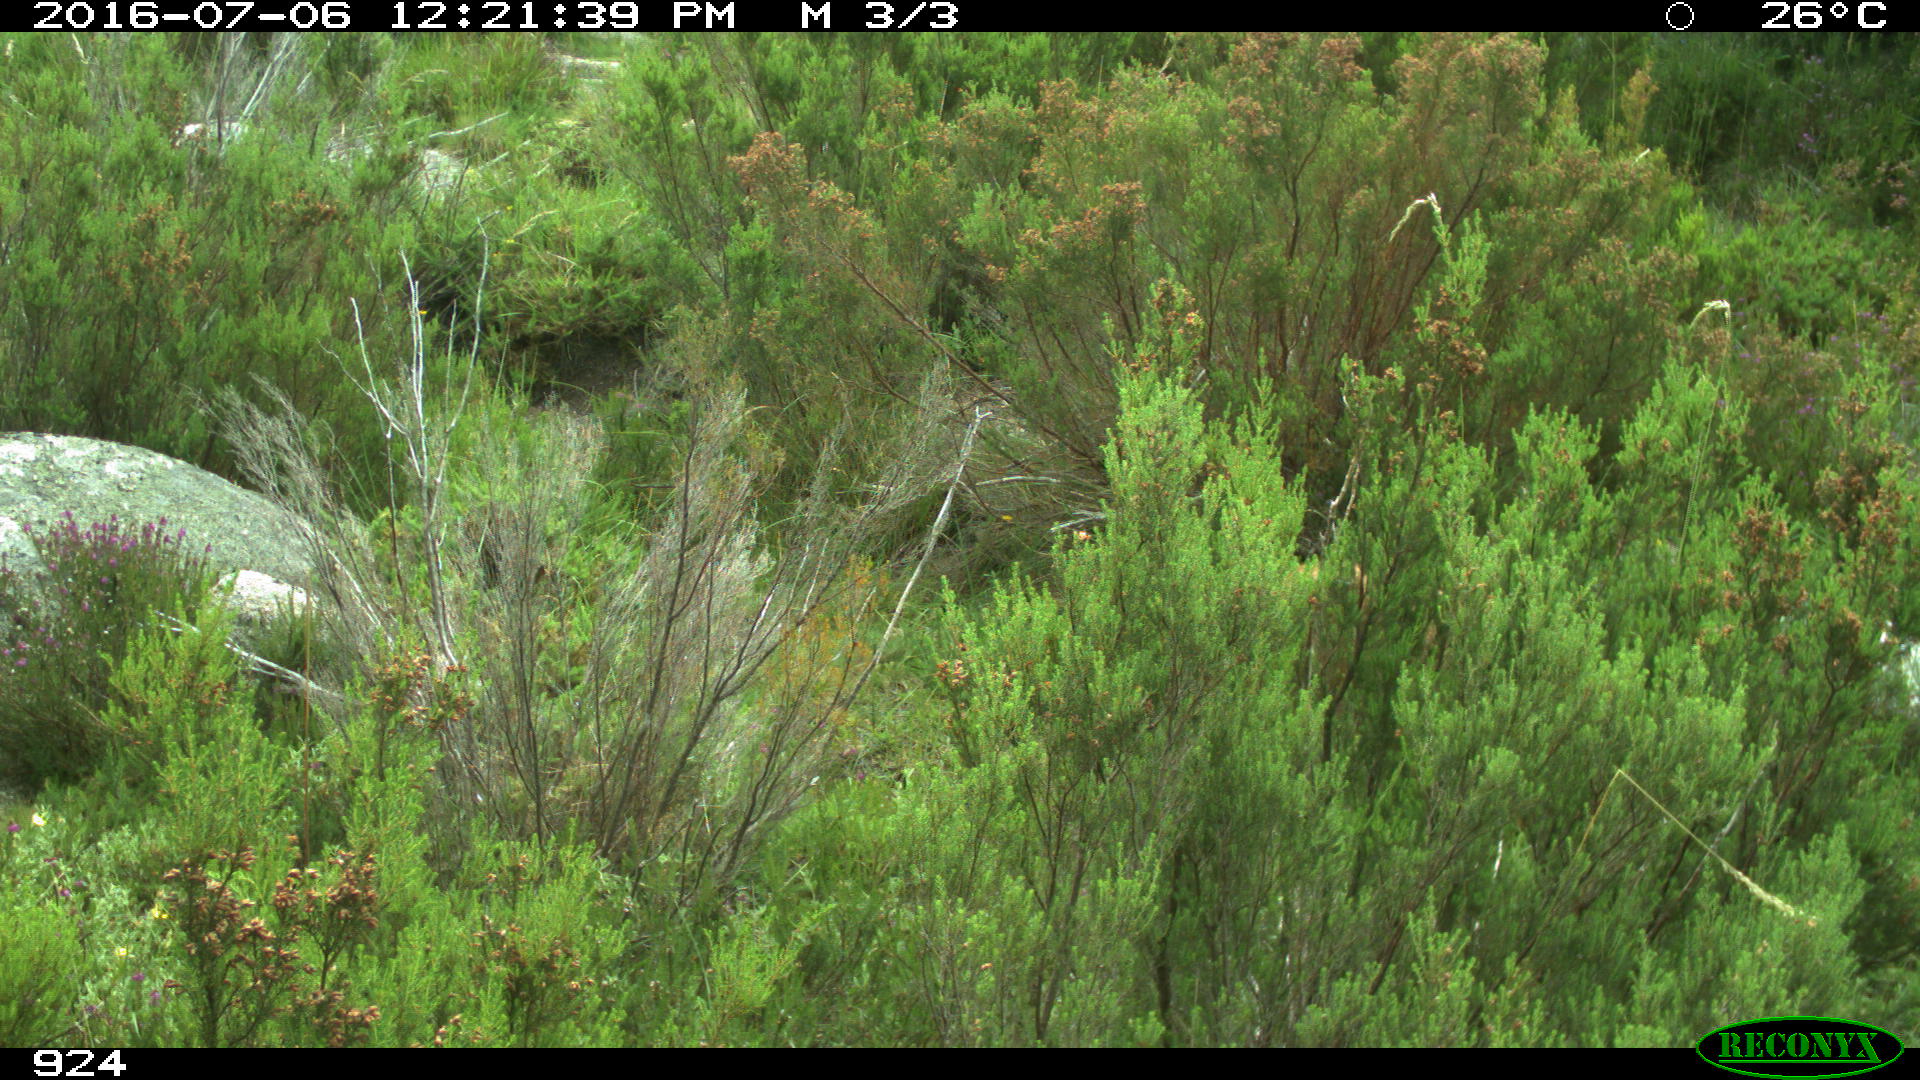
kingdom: Animalia
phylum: Chordata
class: Mammalia
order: Artiodactyla
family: Cervidae
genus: Capreolus
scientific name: Capreolus capreolus
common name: Western roe deer
